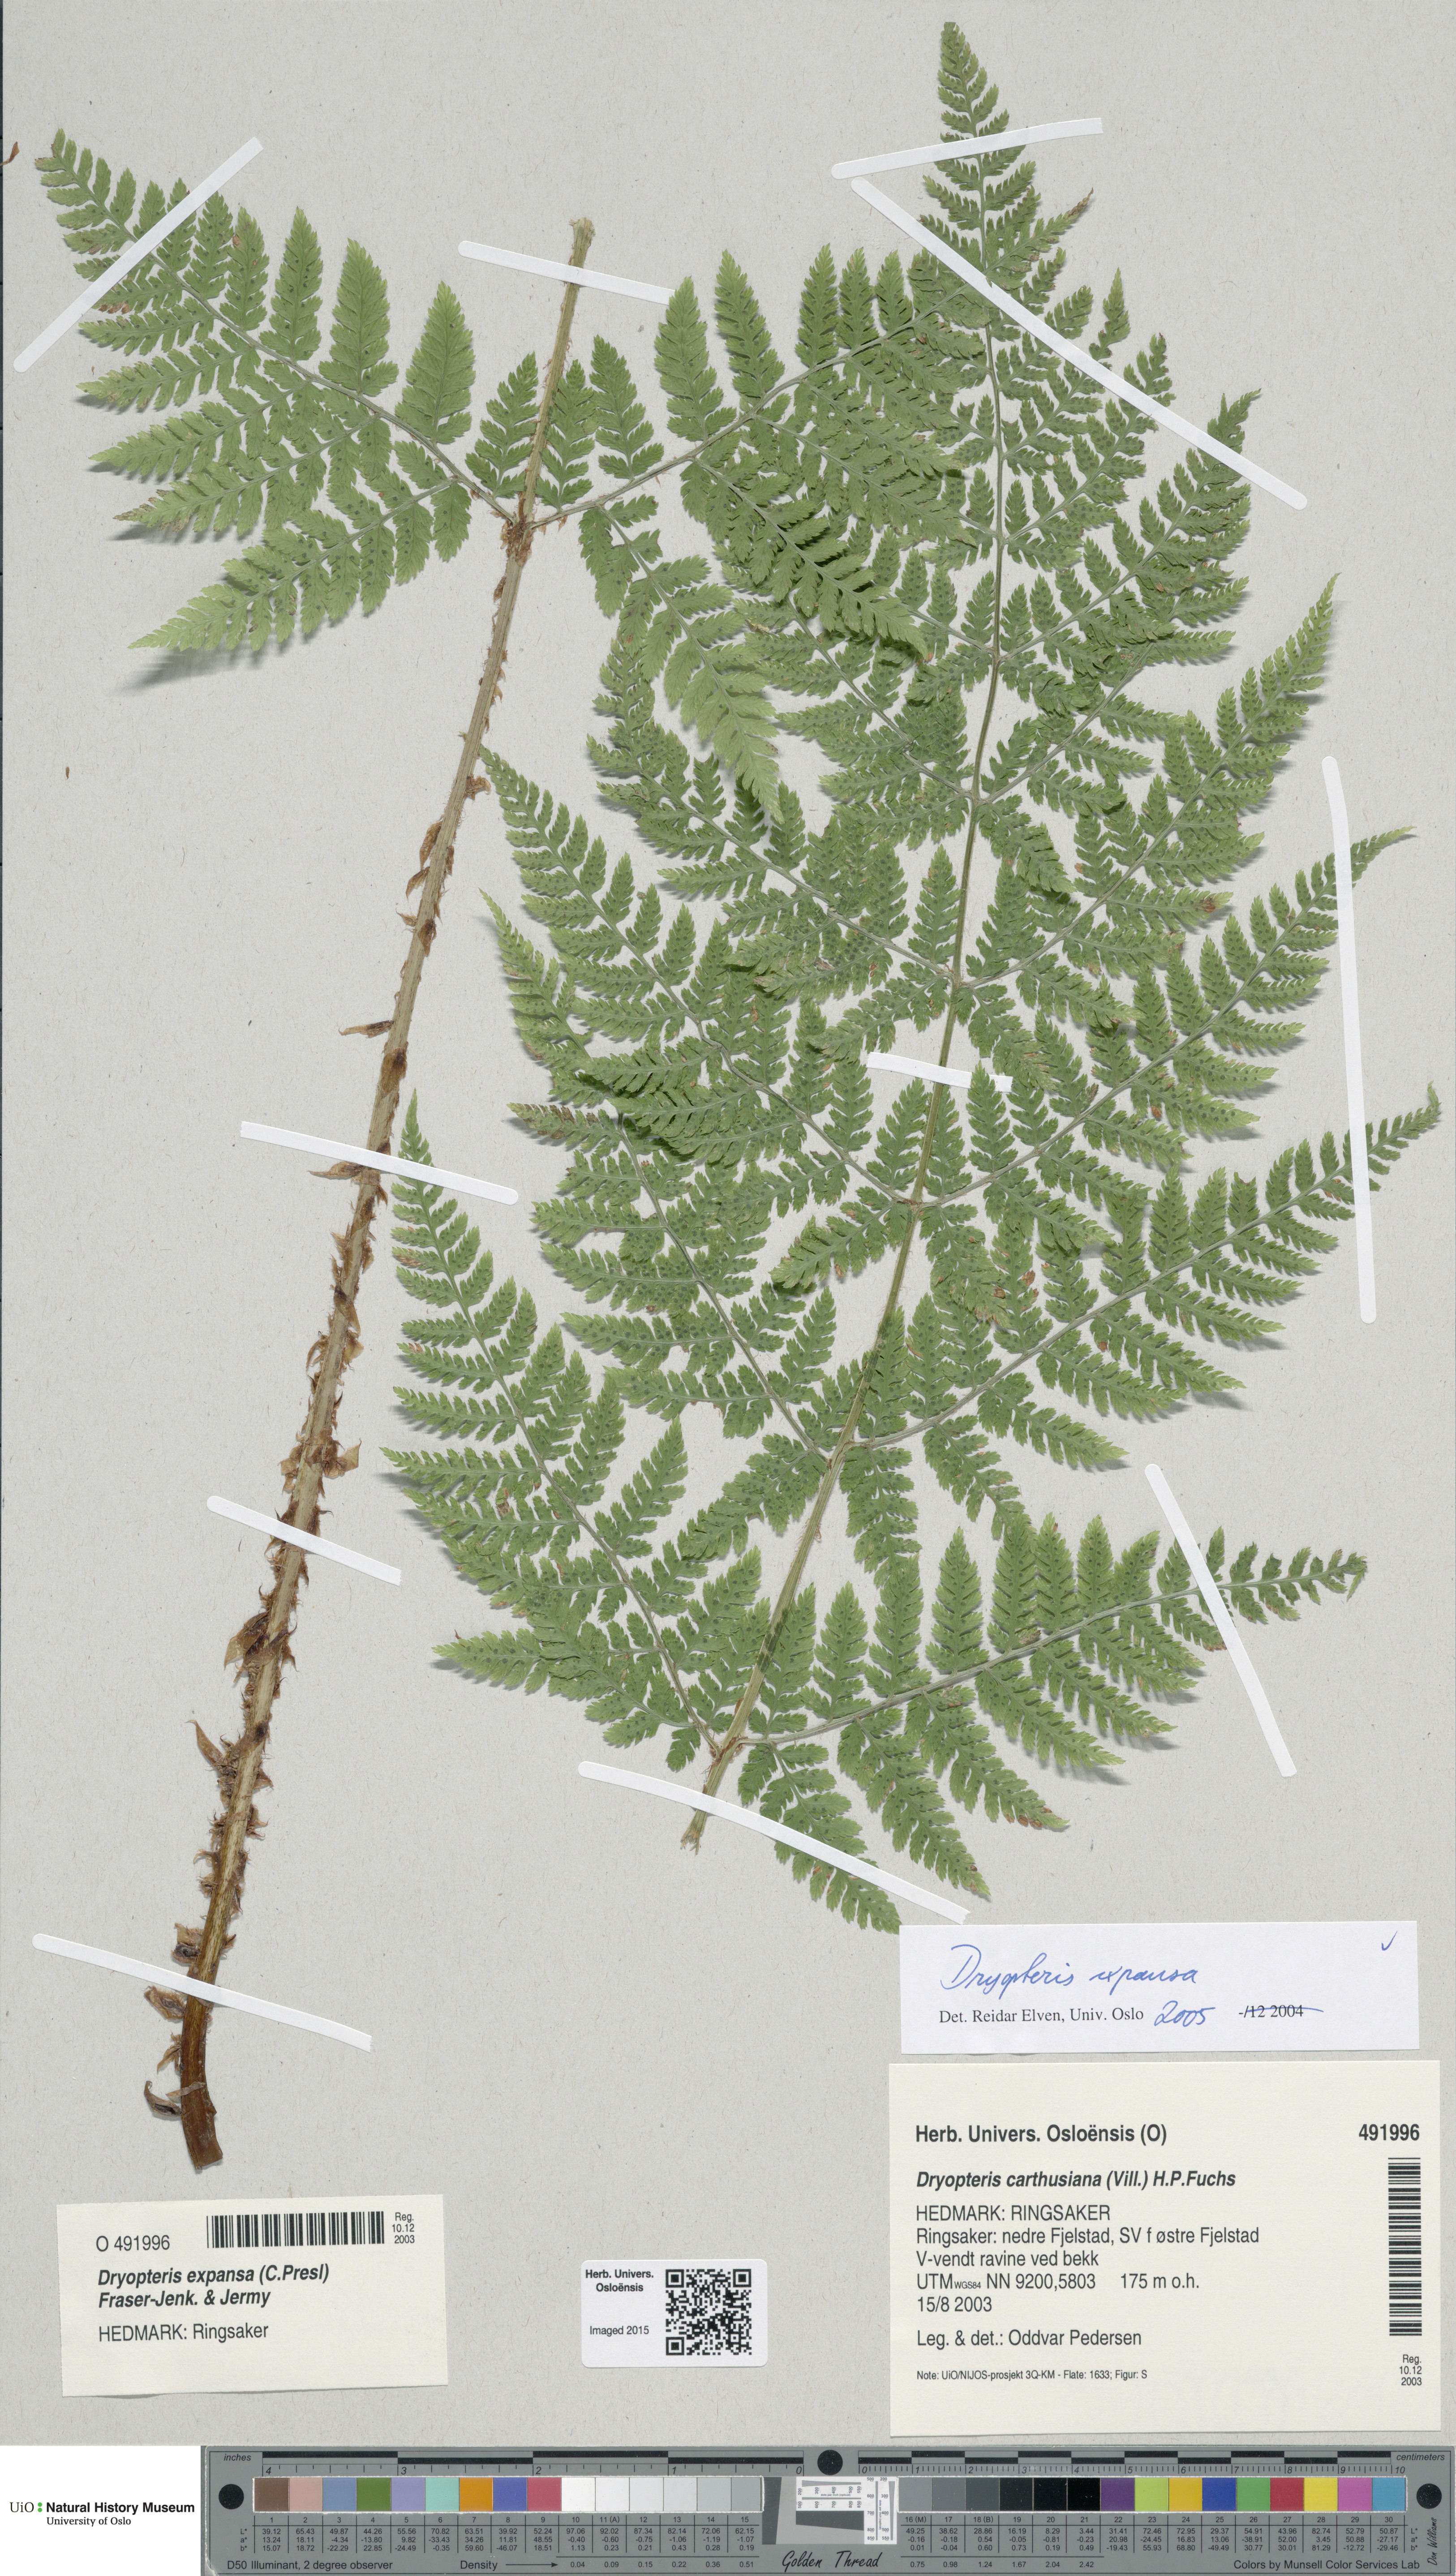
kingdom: Plantae
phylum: Tracheophyta
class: Polypodiopsida
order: Polypodiales
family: Dryopteridaceae
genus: Dryopteris
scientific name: Dryopteris expansa
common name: Northern buckler fern
